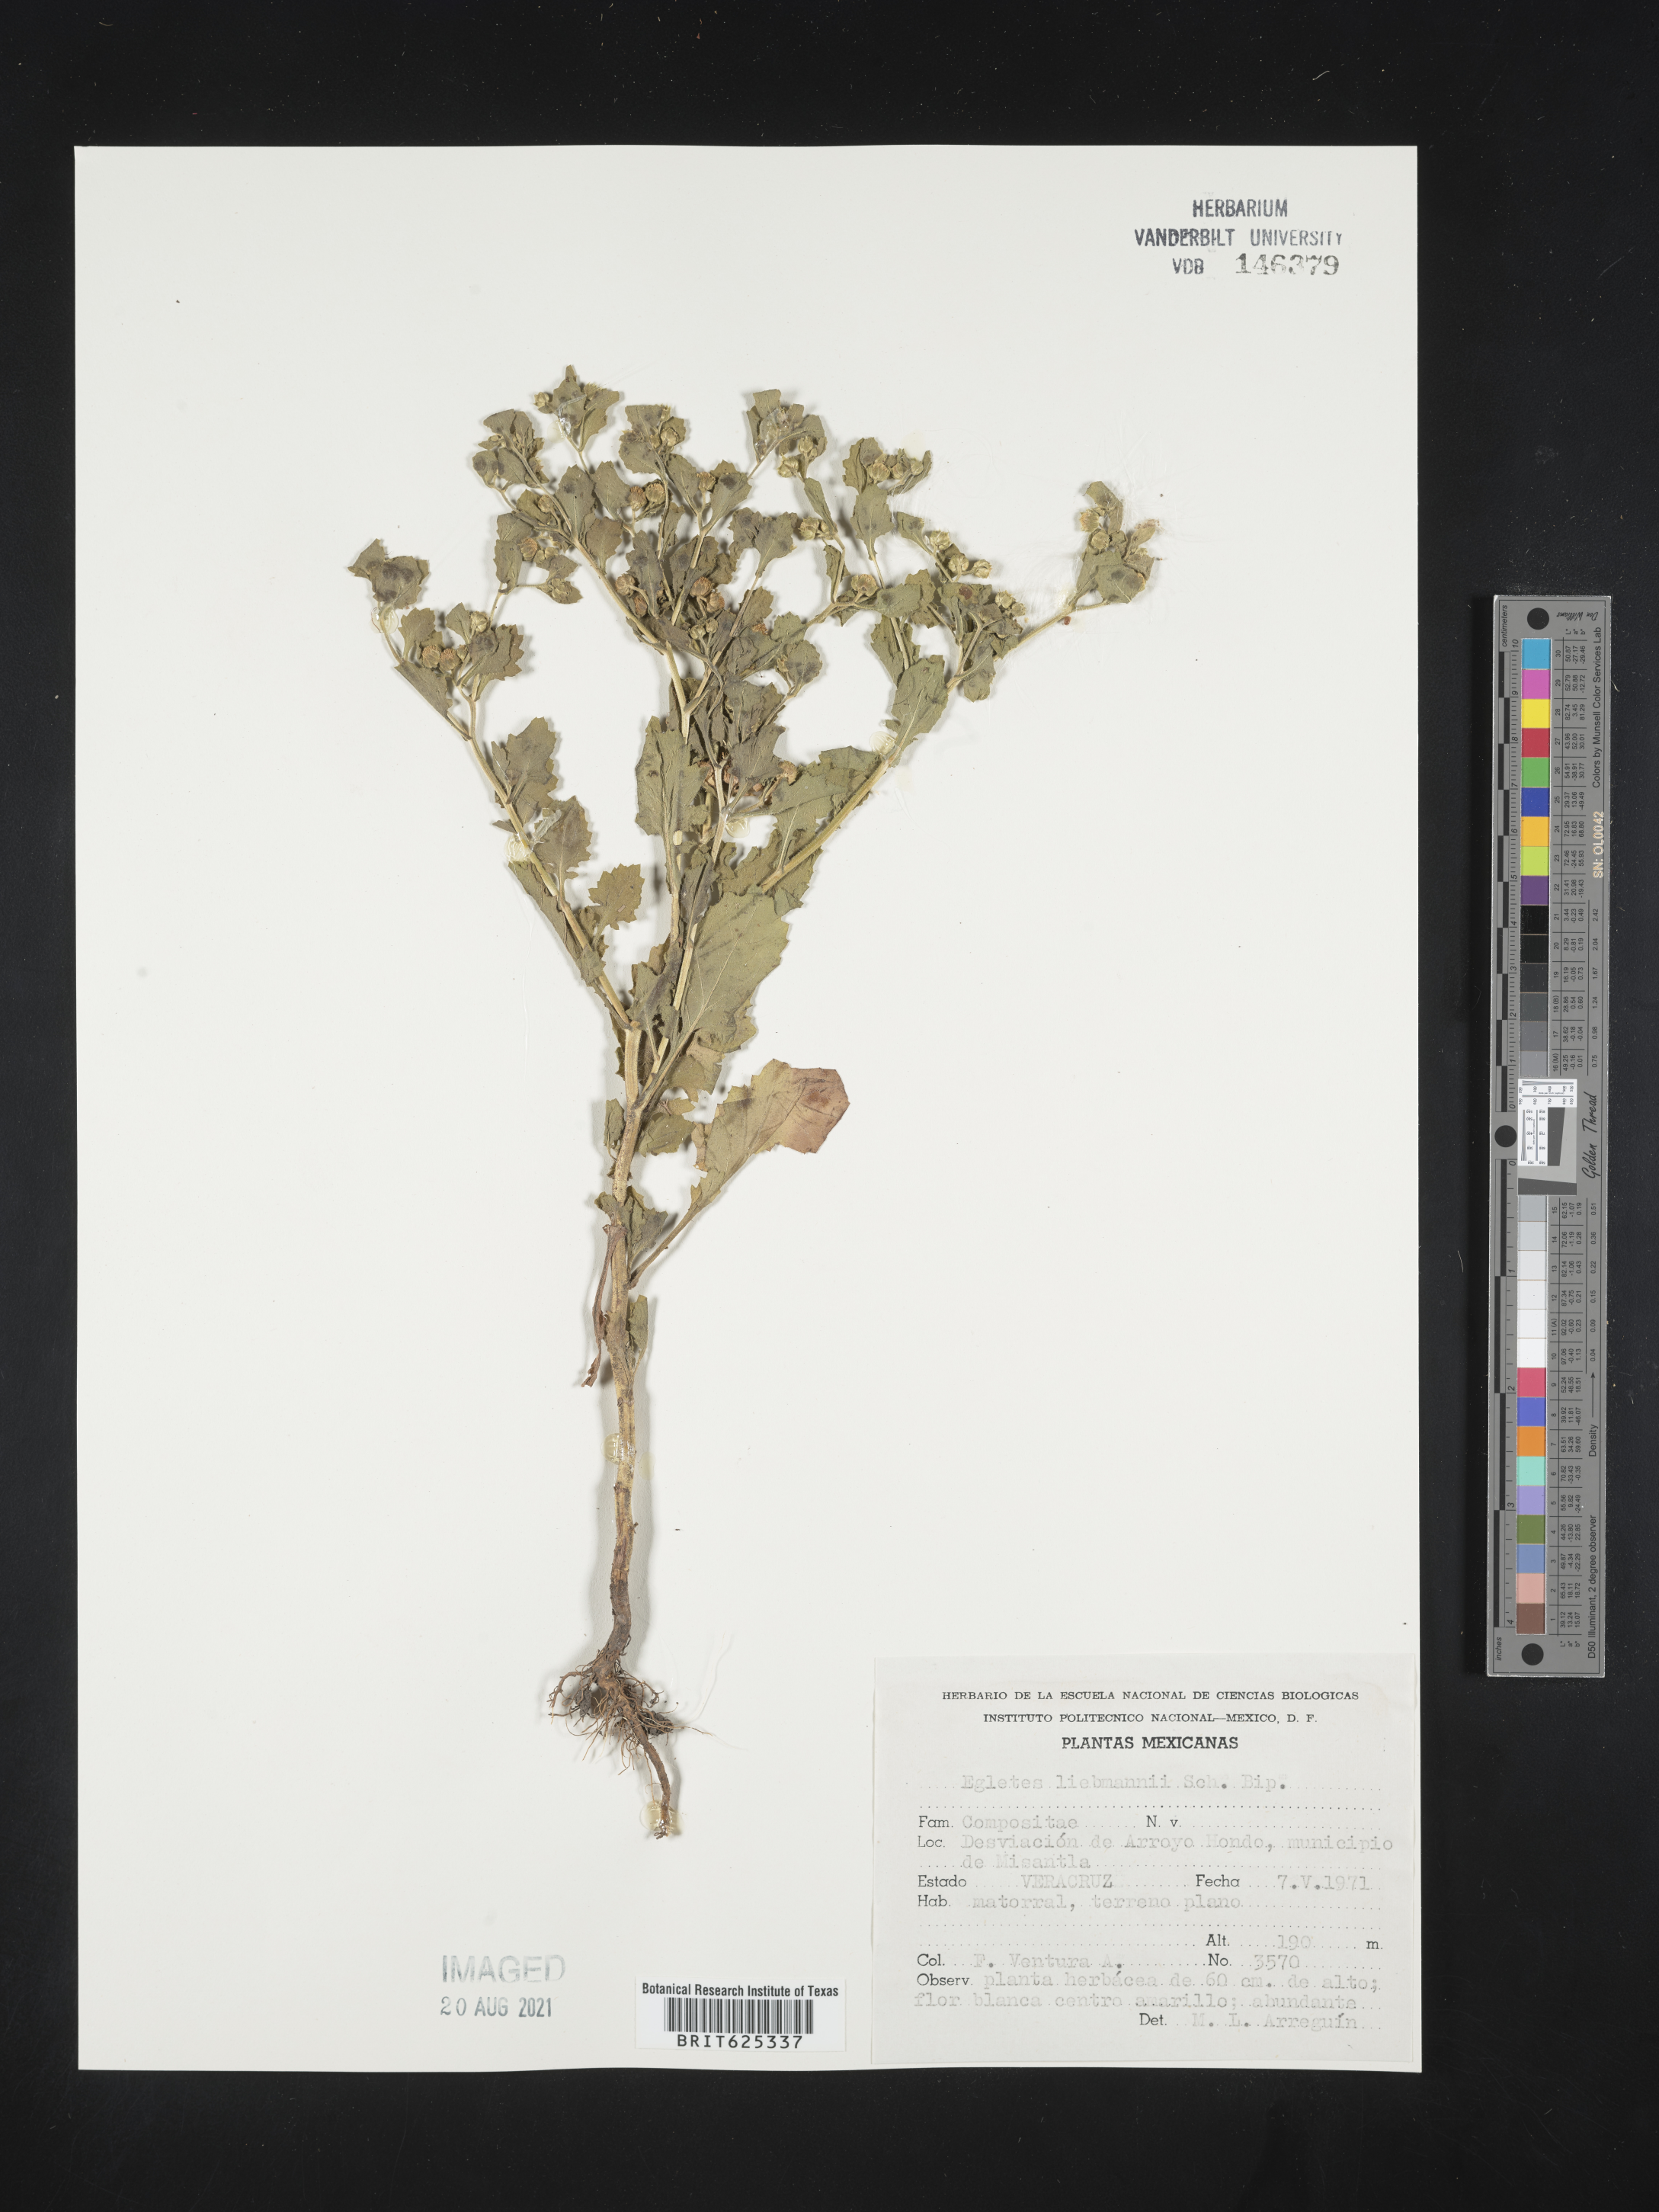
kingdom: Plantae
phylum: Tracheophyta
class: Magnoliopsida
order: Asterales
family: Asteraceae
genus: Egletes
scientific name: Egletes
